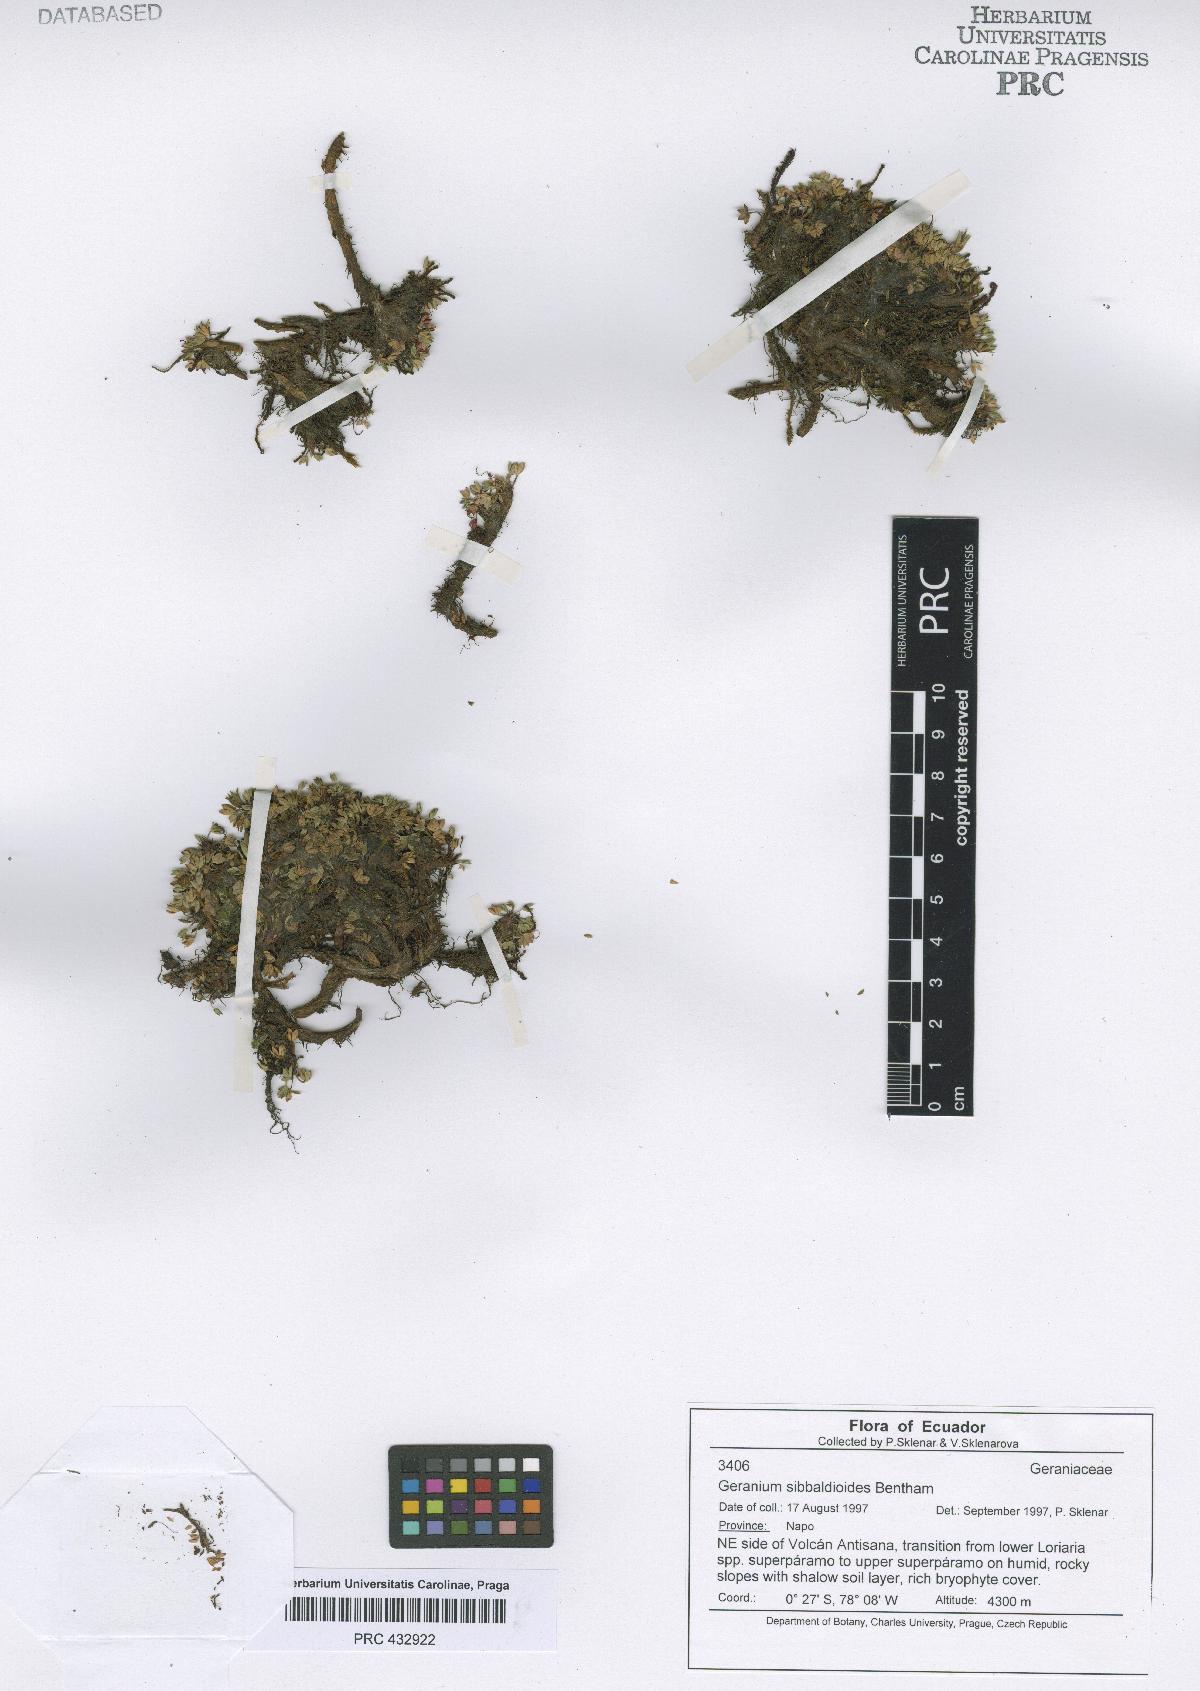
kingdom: Plantae
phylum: Tracheophyta
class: Magnoliopsida
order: Geraniales
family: Geraniaceae
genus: Geranium
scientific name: Geranium sibbaldioides
